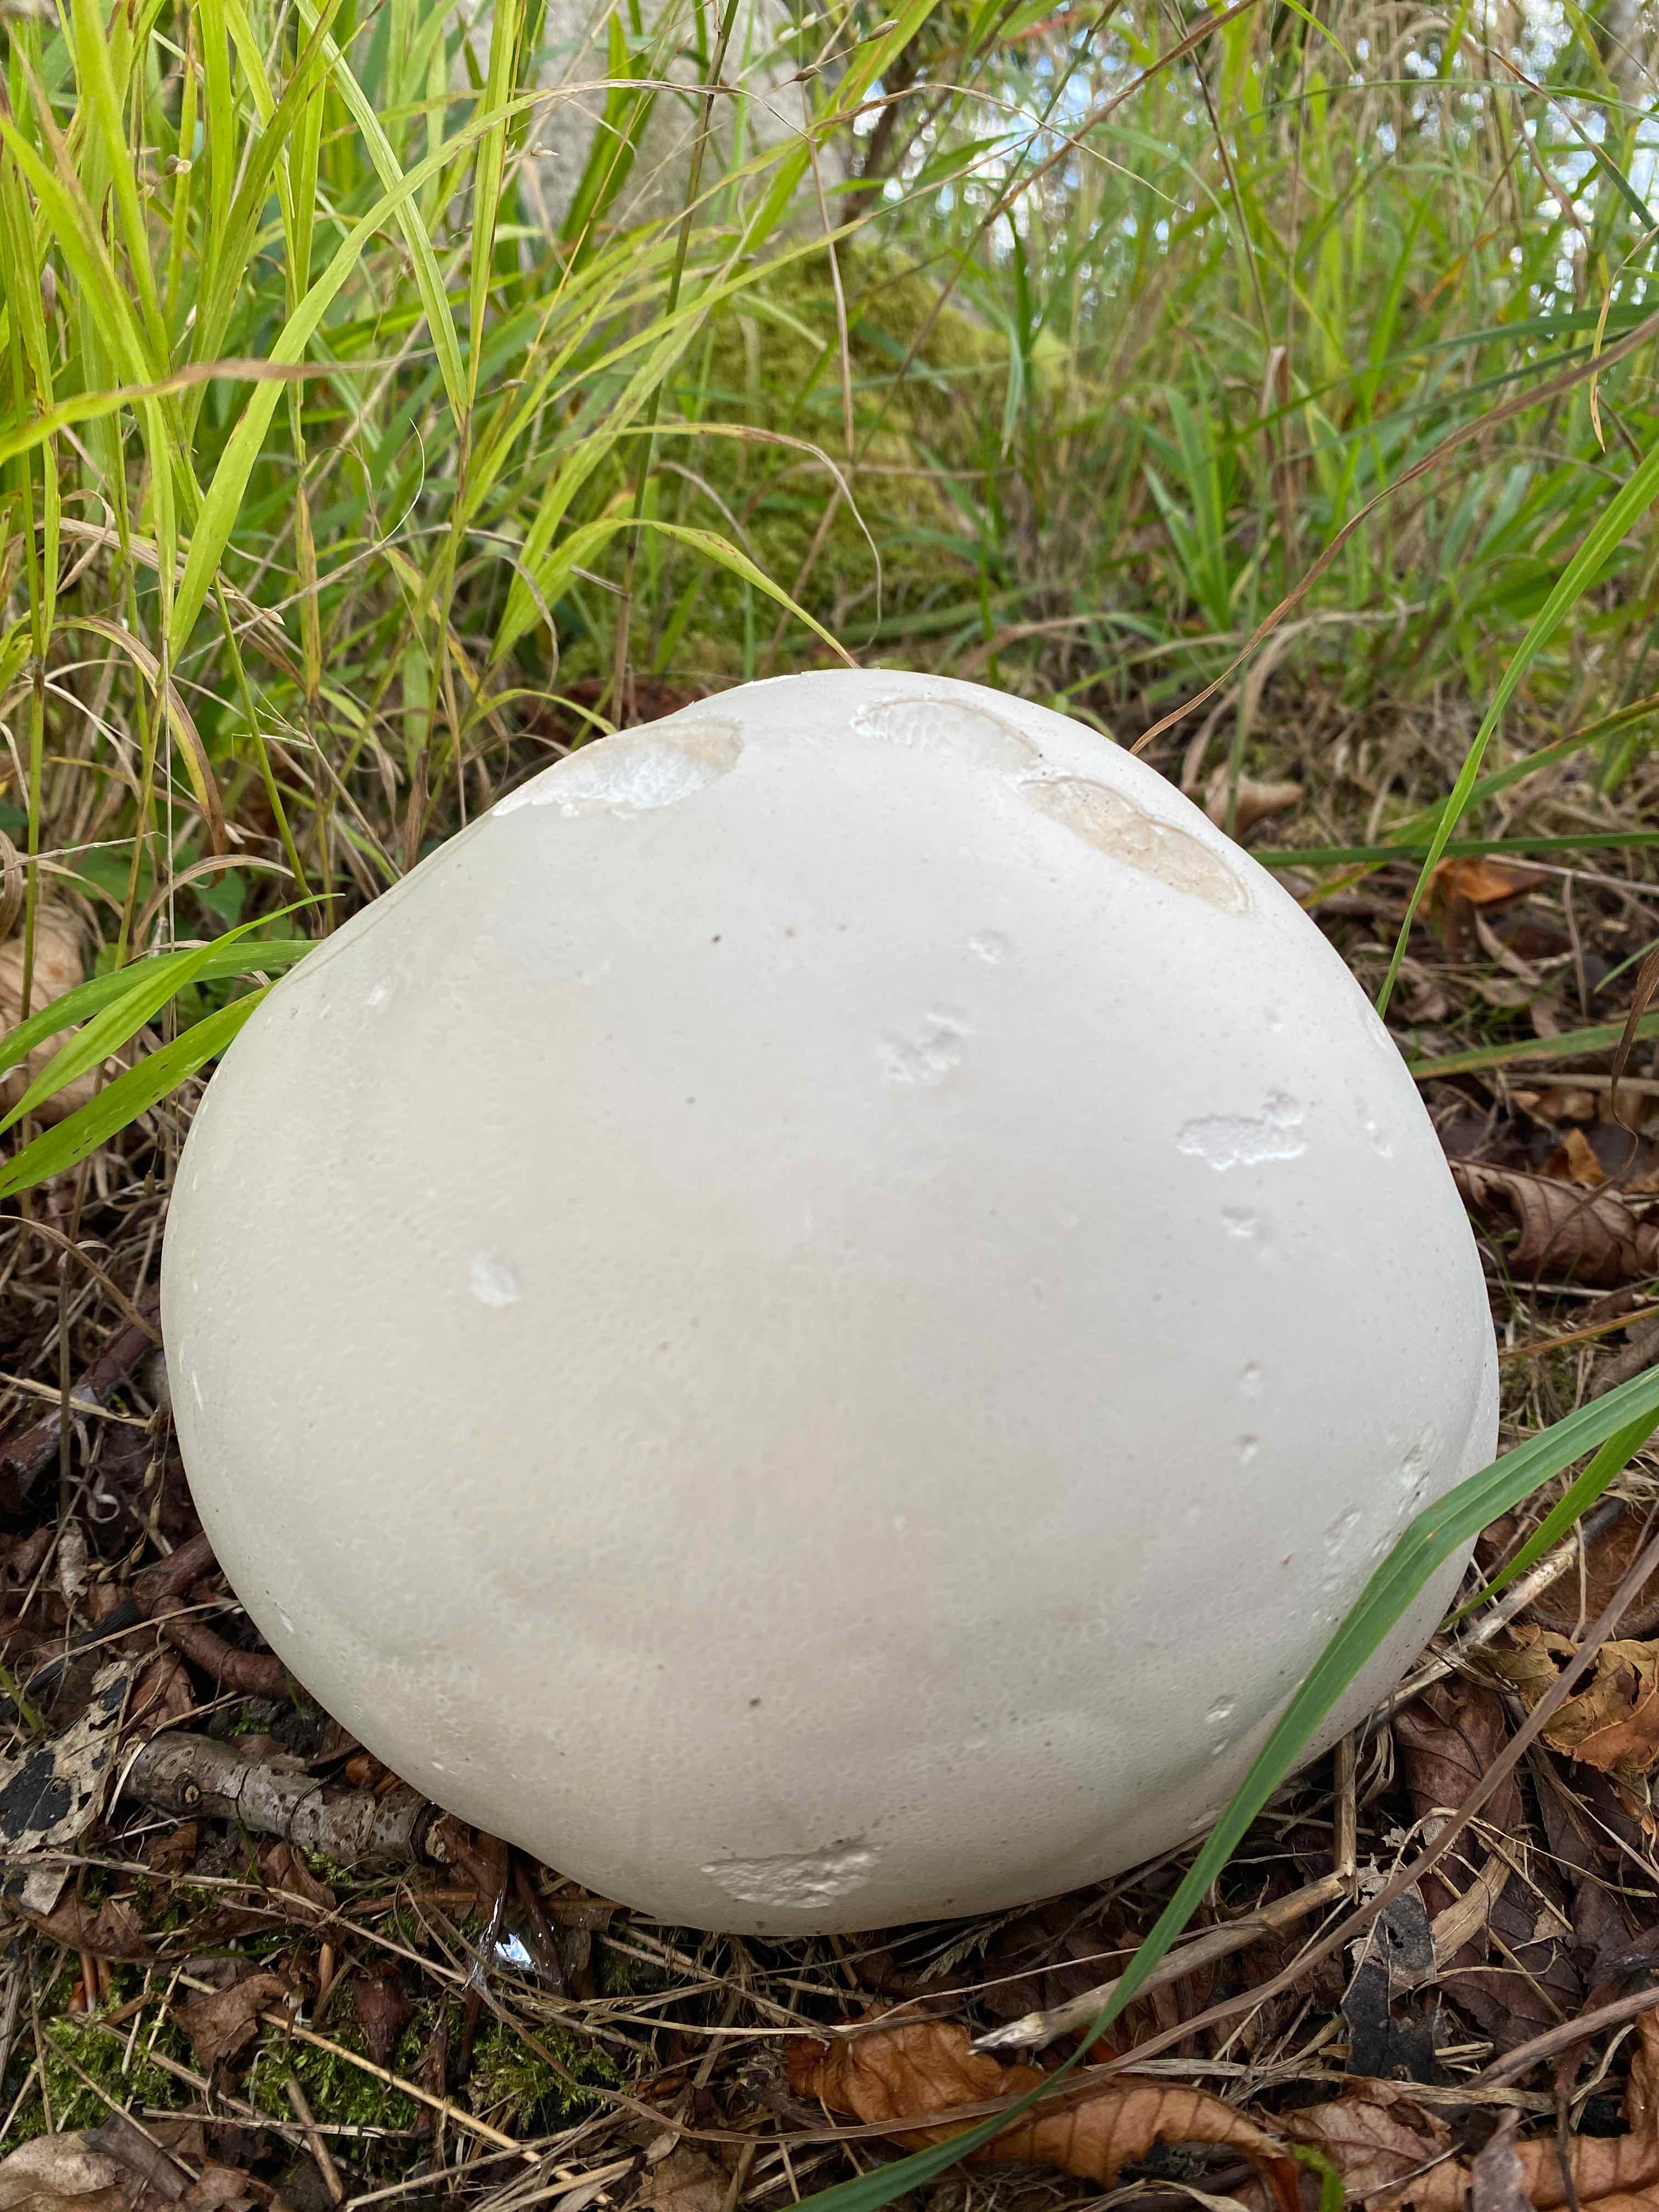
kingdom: Fungi
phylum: Basidiomycota
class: Agaricomycetes
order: Agaricales
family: Lycoperdaceae
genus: Calvatia
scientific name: Calvatia gigantea
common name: kæmpestøvbold
